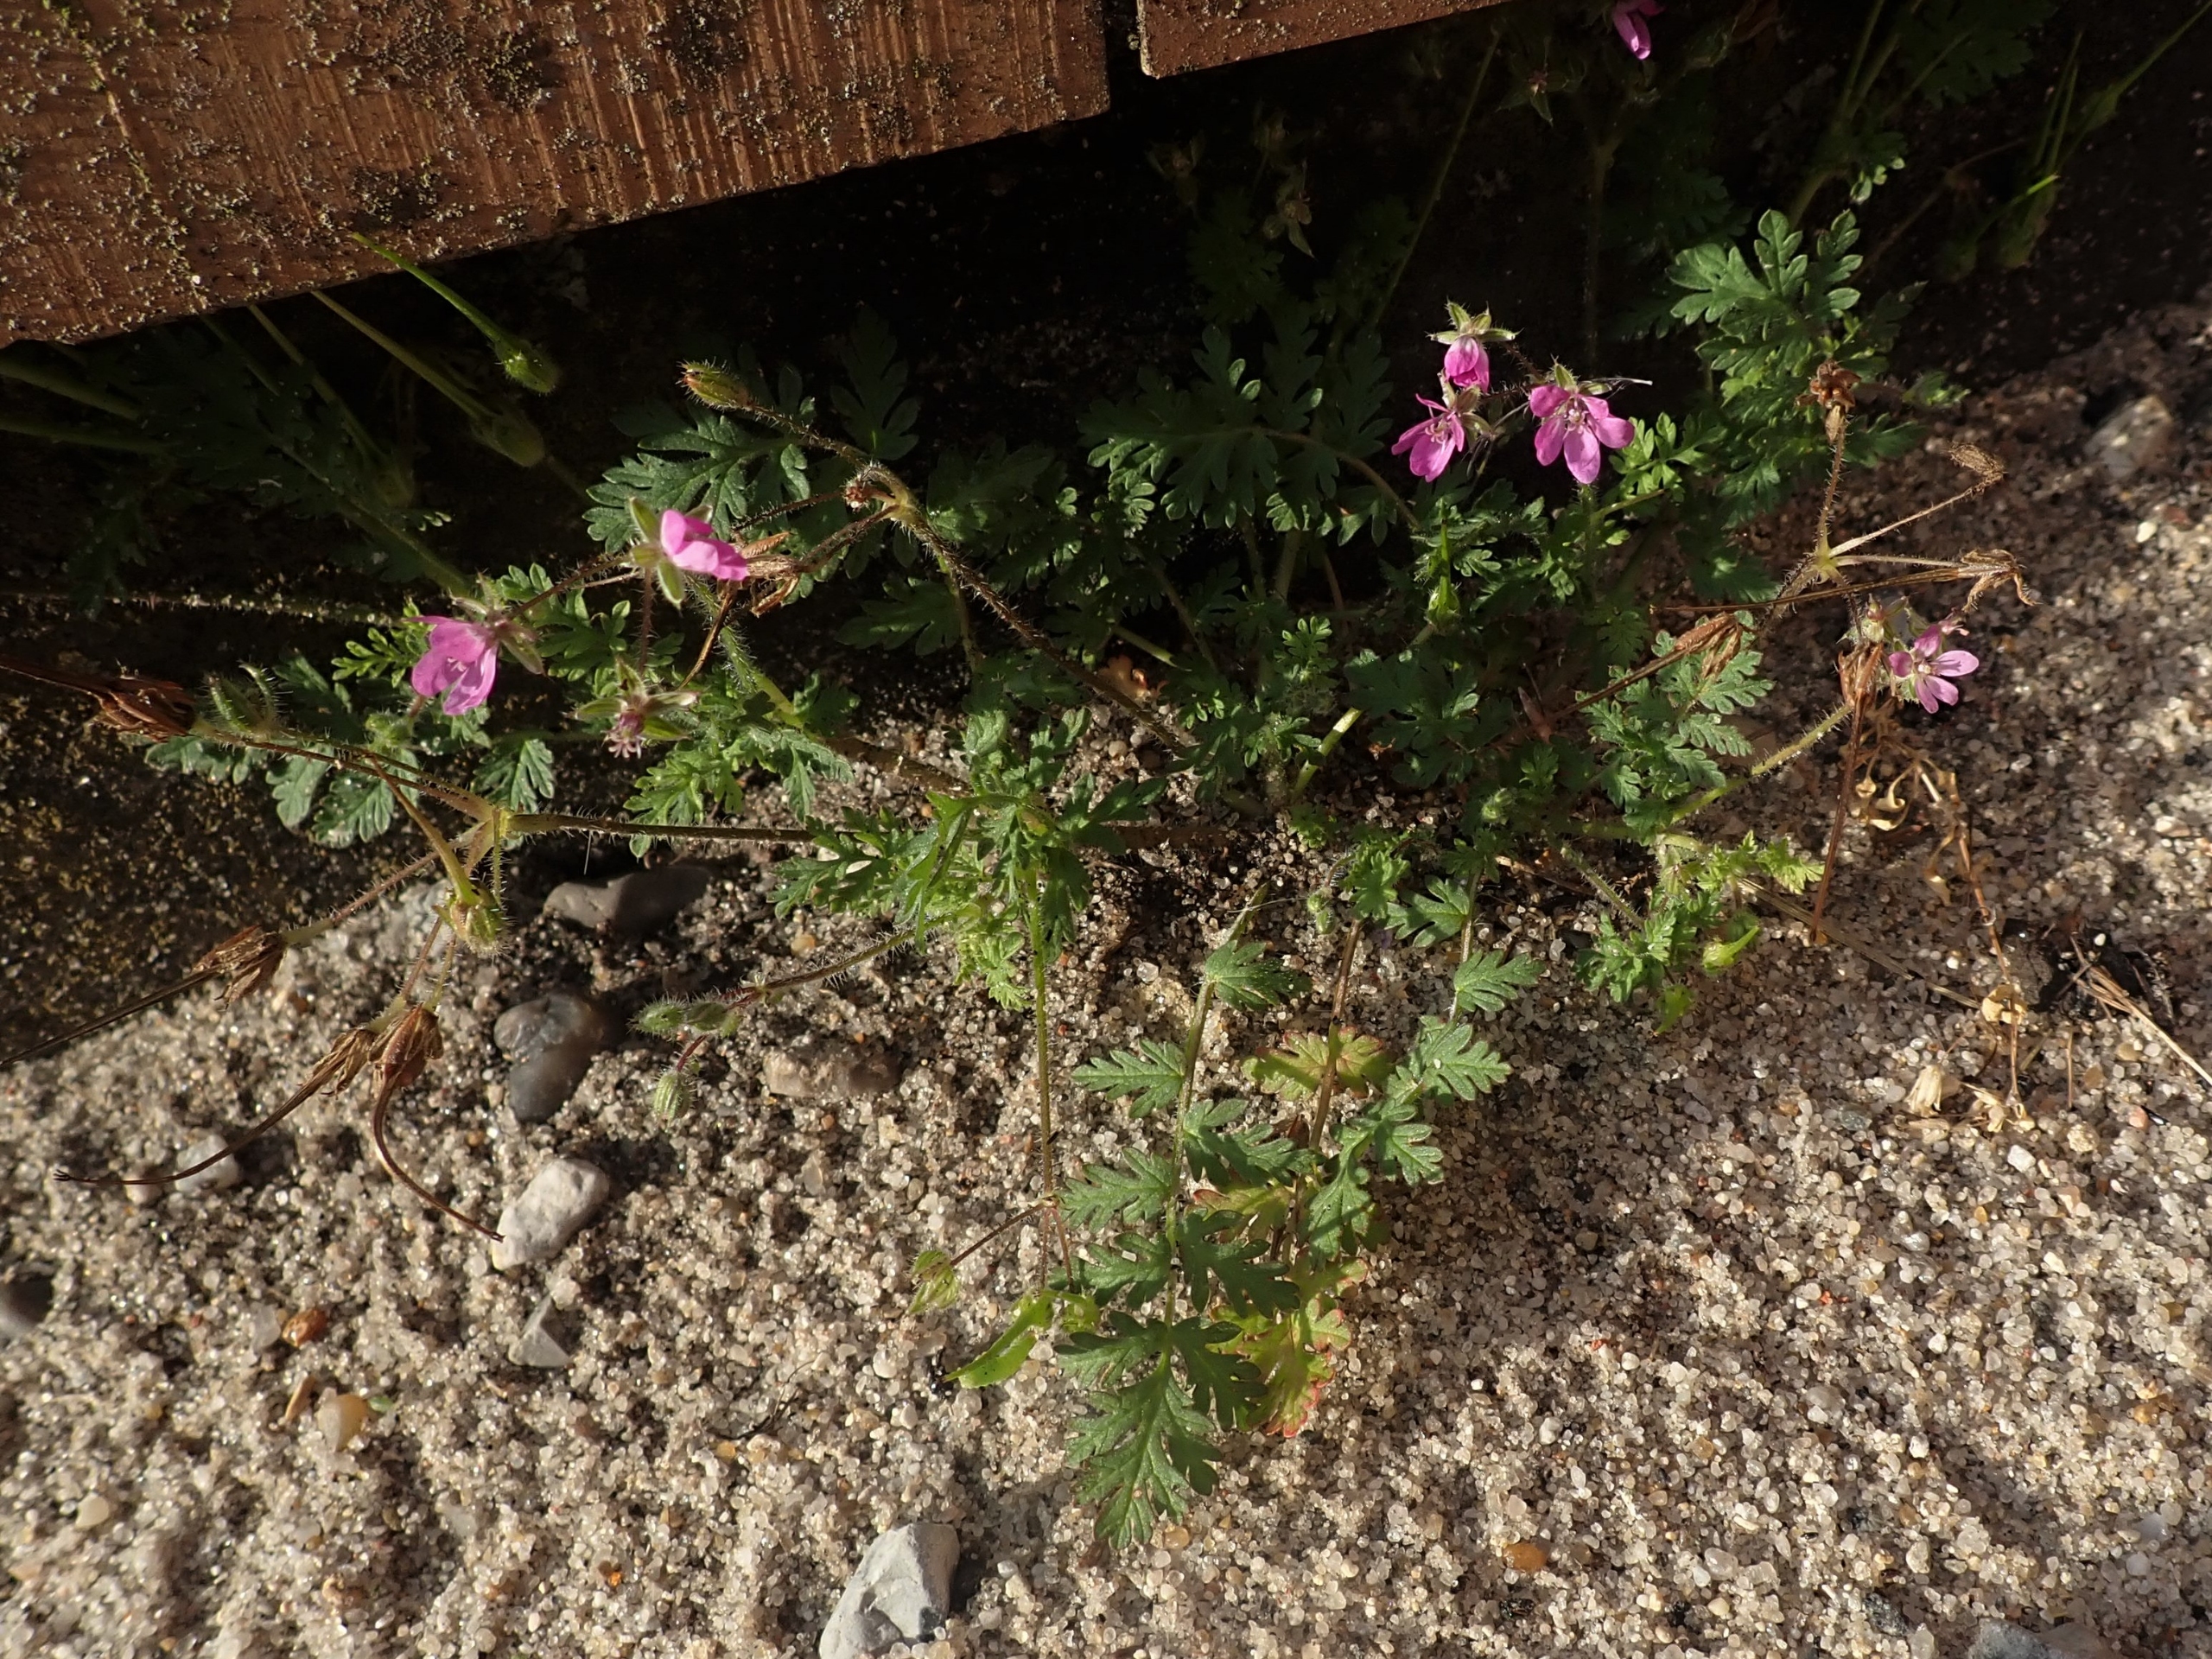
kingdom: Plantae
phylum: Tracheophyta
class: Magnoliopsida
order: Geraniales
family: Geraniaceae
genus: Erodium
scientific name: Erodium cicutarium
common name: Hejrenæb
